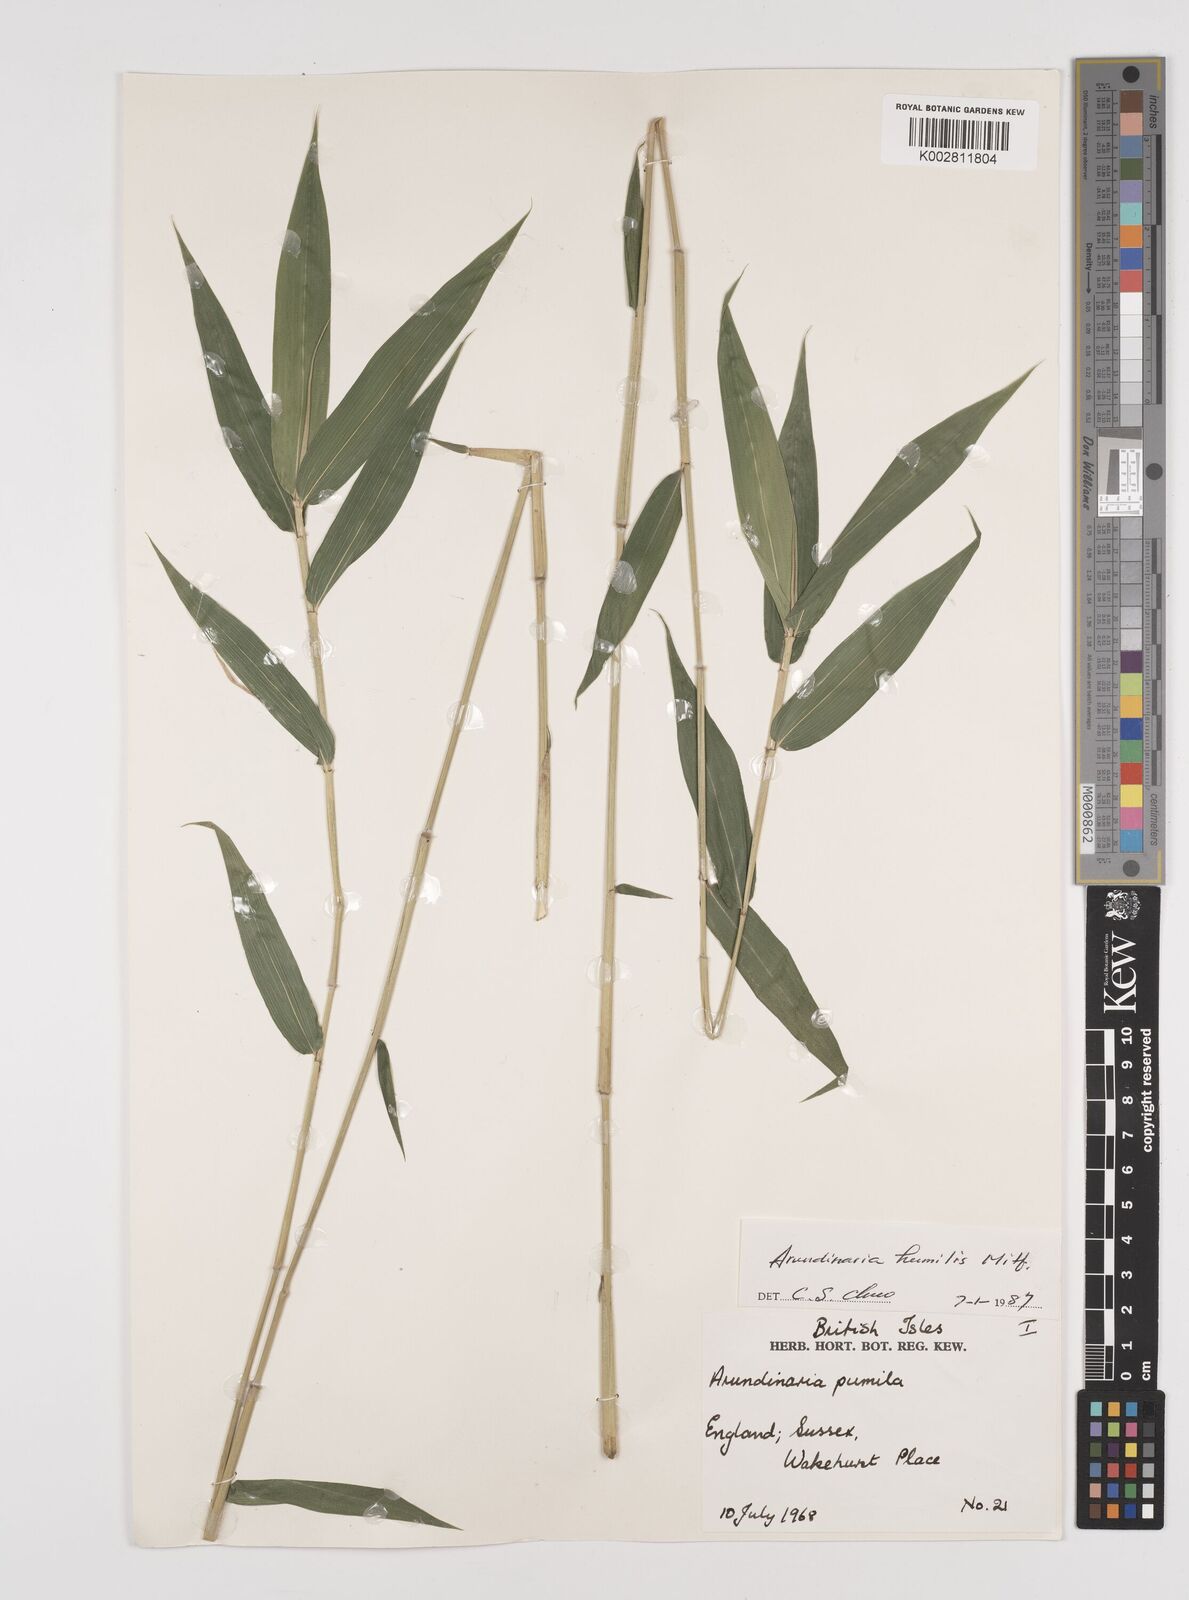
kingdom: Plantae
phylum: Tracheophyta
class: Liliopsida
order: Poales
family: Poaceae
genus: Pseudosasa
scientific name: Pseudosasa humilis
